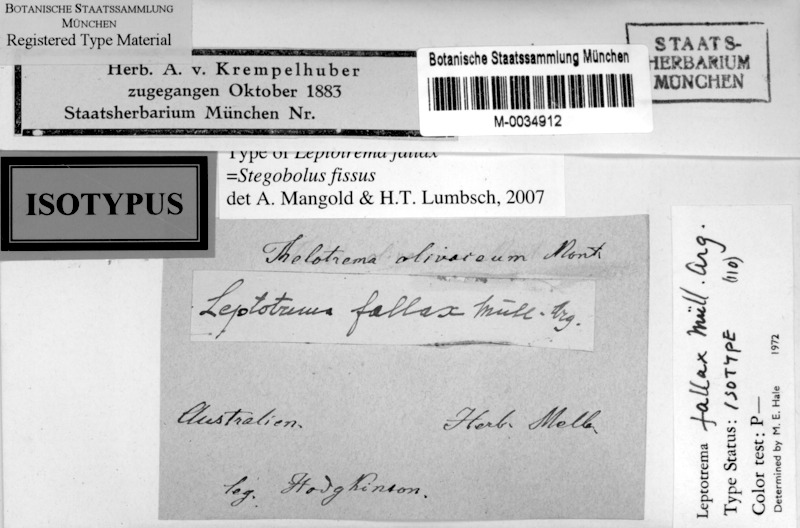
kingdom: Fungi
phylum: Ascomycota
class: Lecanoromycetes
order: Ostropales
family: Graphidaceae
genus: Stegobolus
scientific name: Stegobolus fissus
